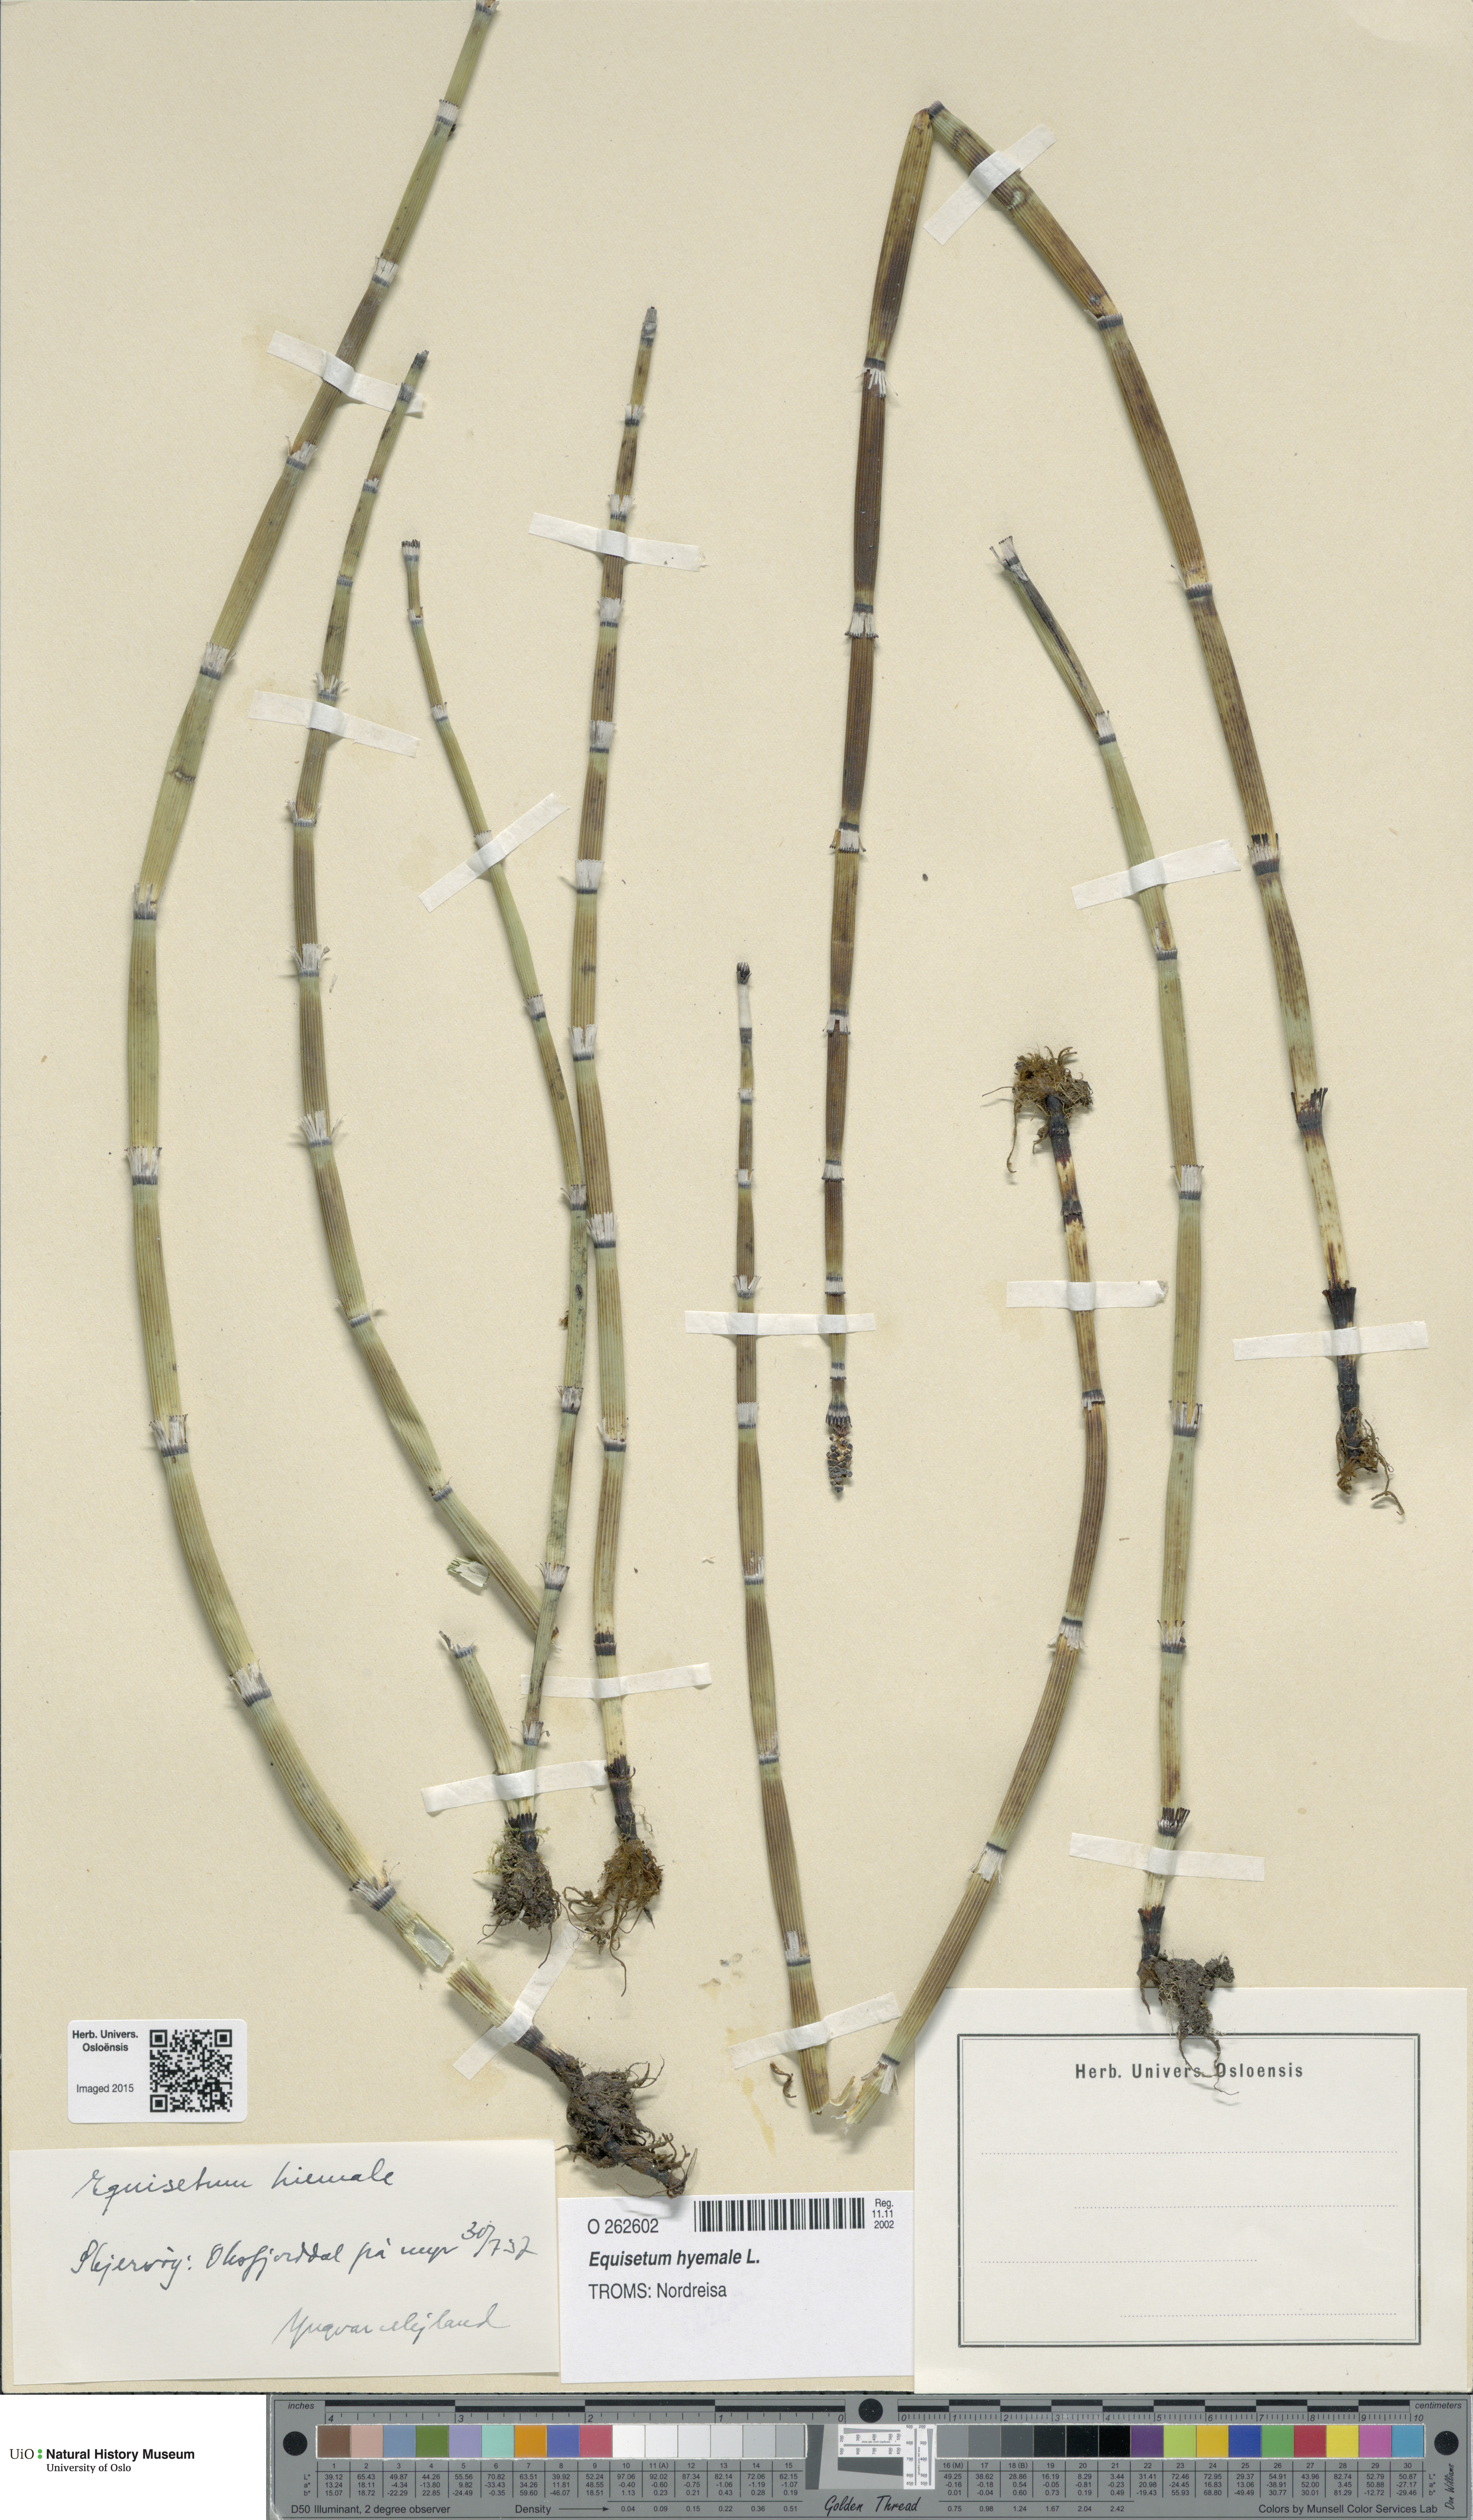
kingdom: Plantae
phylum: Tracheophyta
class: Polypodiopsida
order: Equisetales
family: Equisetaceae
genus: Equisetum
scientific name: Equisetum hyemale
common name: Rough horsetail
